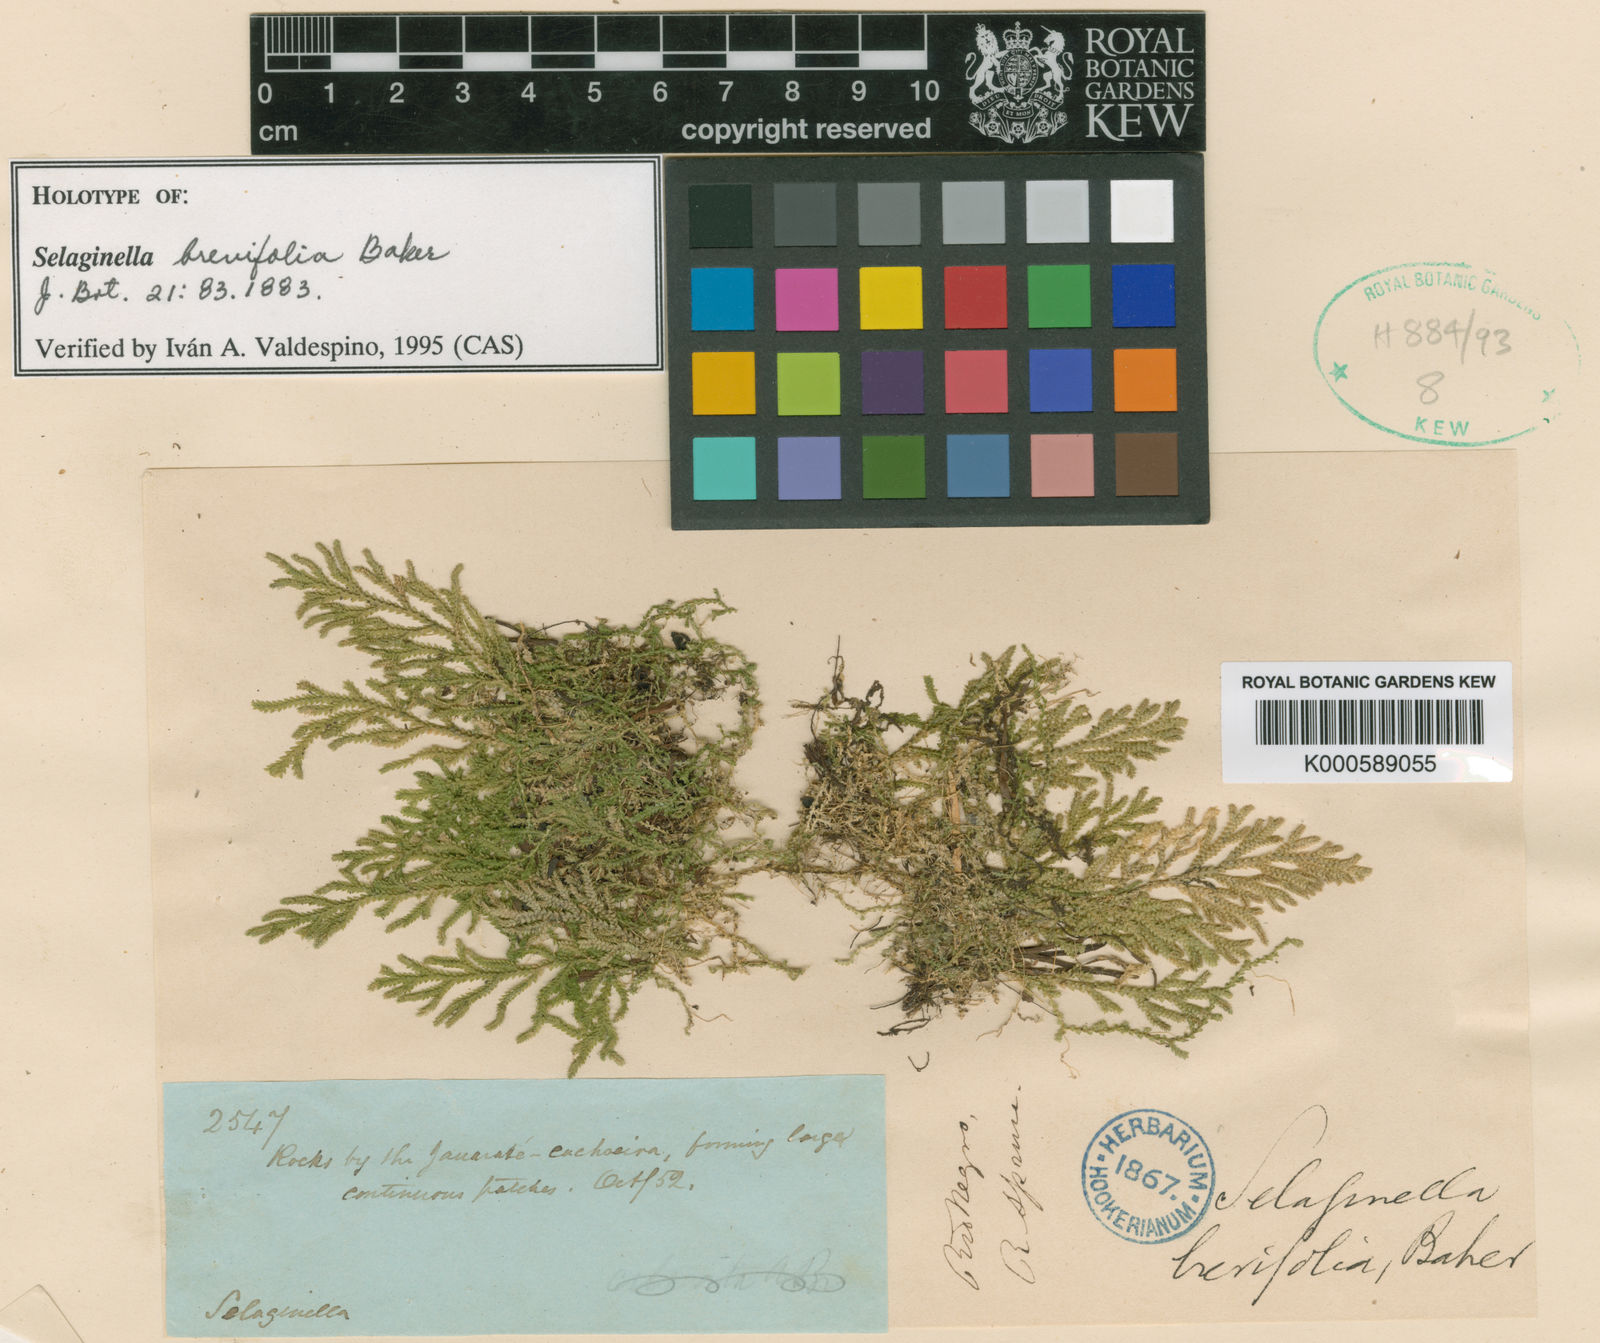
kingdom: Plantae
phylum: Tracheophyta
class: Lycopodiopsida
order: Selaginellales
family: Selaginellaceae
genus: Selaginella
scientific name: Selaginella brevifolia
